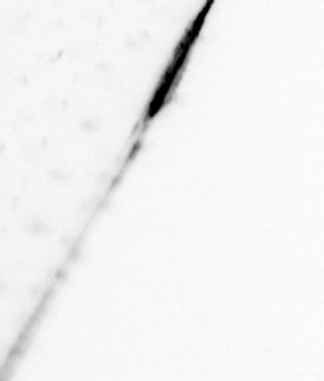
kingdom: Animalia
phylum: Chaetognatha
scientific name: Chaetognatha
